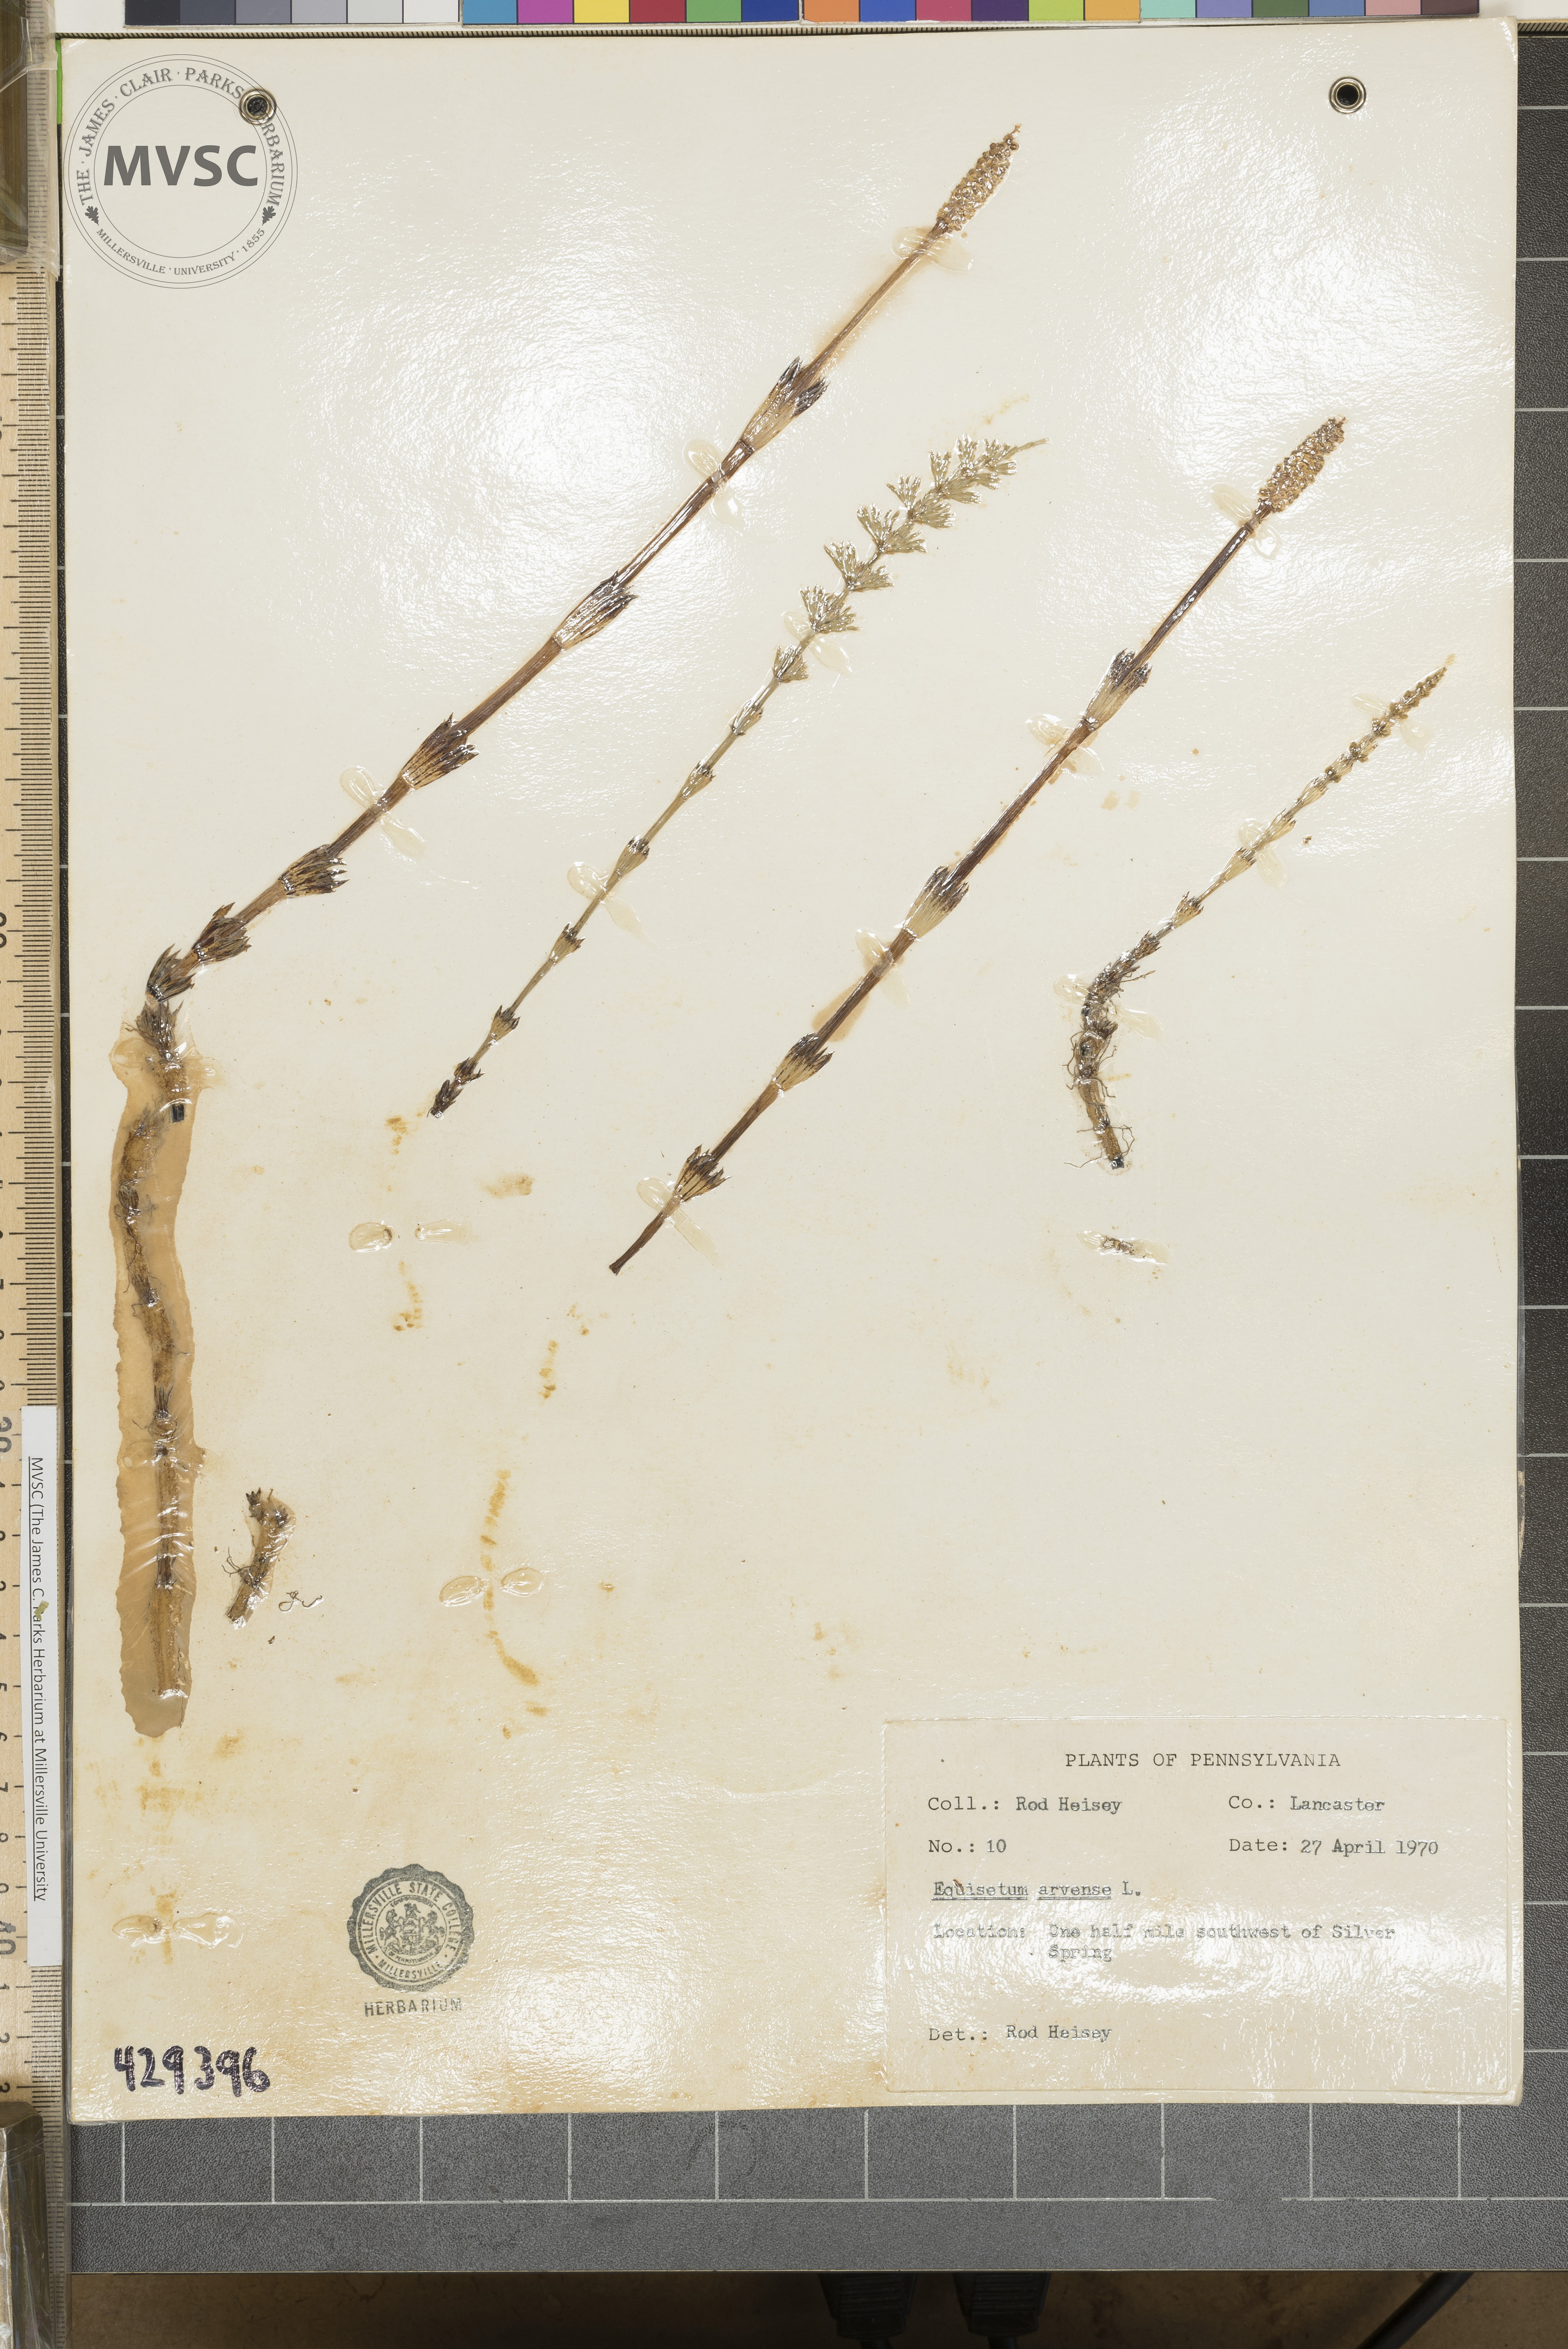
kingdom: Plantae
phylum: Tracheophyta
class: Polypodiopsida
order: Equisetales
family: Equisetaceae
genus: Equisetum
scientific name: Equisetum arvense
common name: Field horsetail
